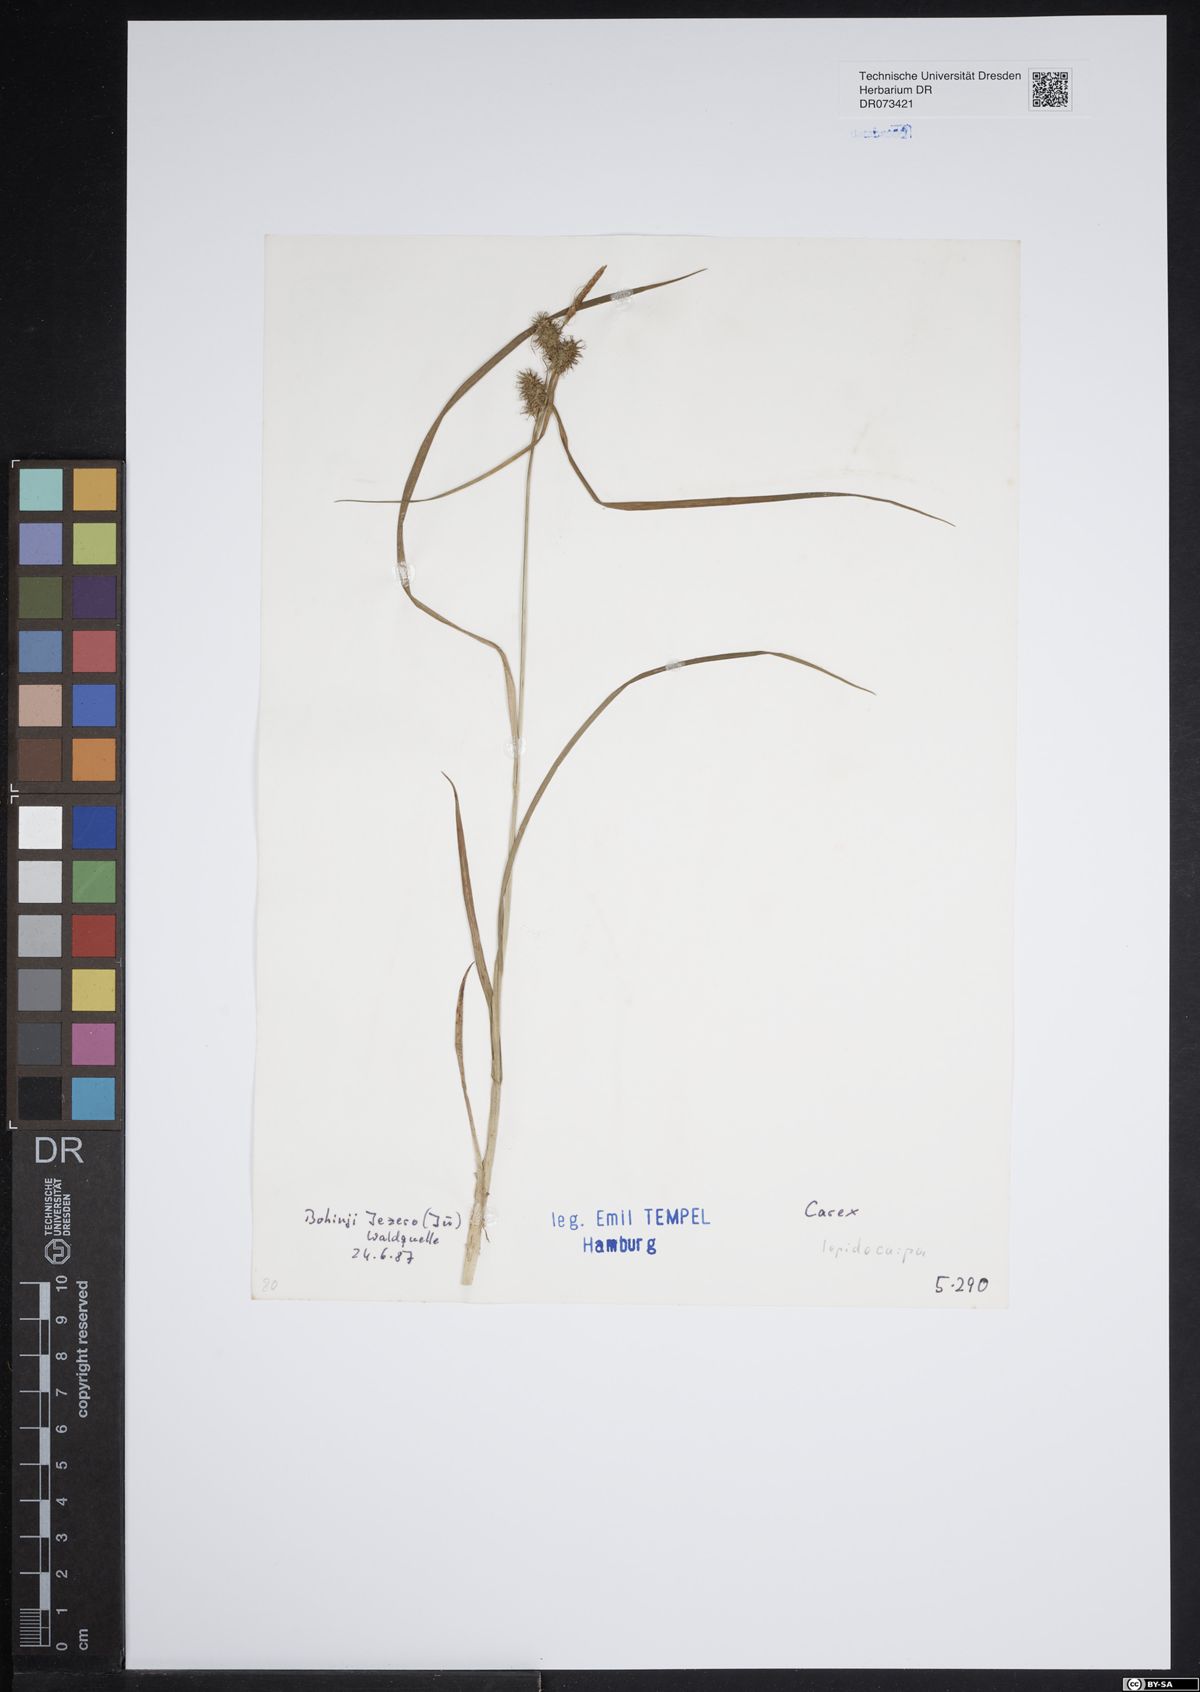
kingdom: Plantae
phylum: Tracheophyta
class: Liliopsida
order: Poales
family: Cyperaceae
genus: Carex
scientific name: Carex lepidocarpa
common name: Long-stalked yellow-sedge
